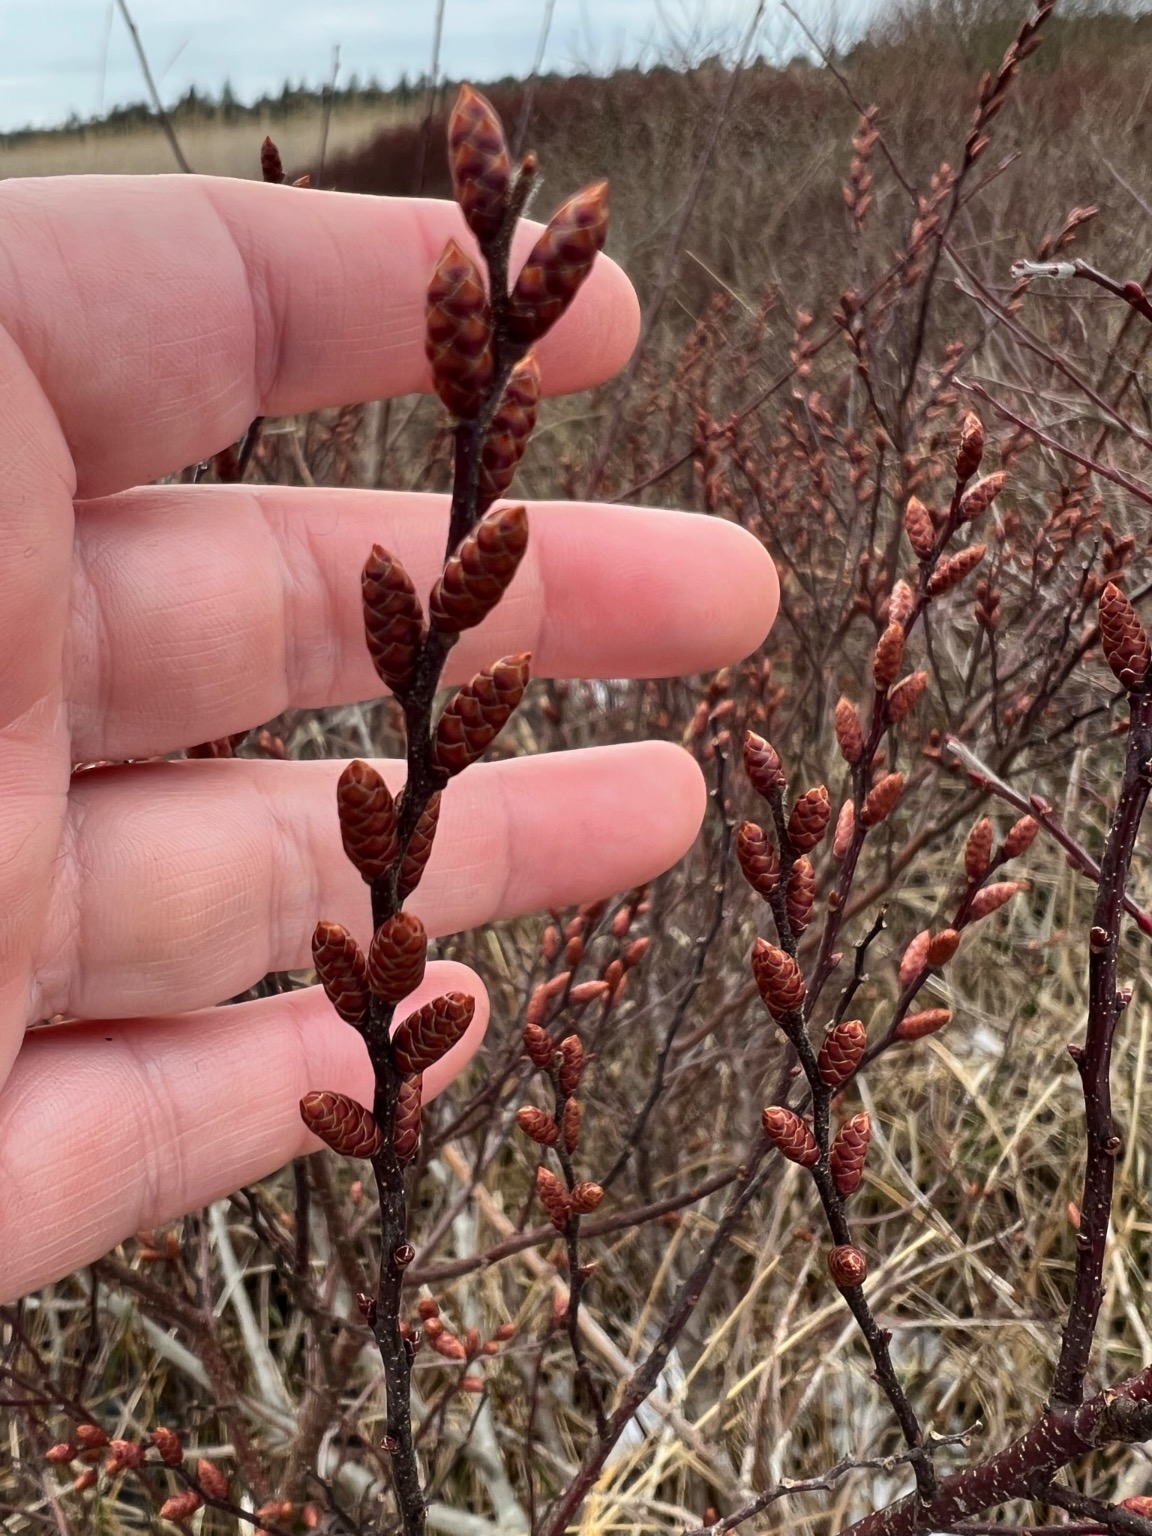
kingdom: Plantae
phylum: Tracheophyta
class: Magnoliopsida
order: Fagales
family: Myricaceae
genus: Myrica
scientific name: Myrica gale
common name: Pors
